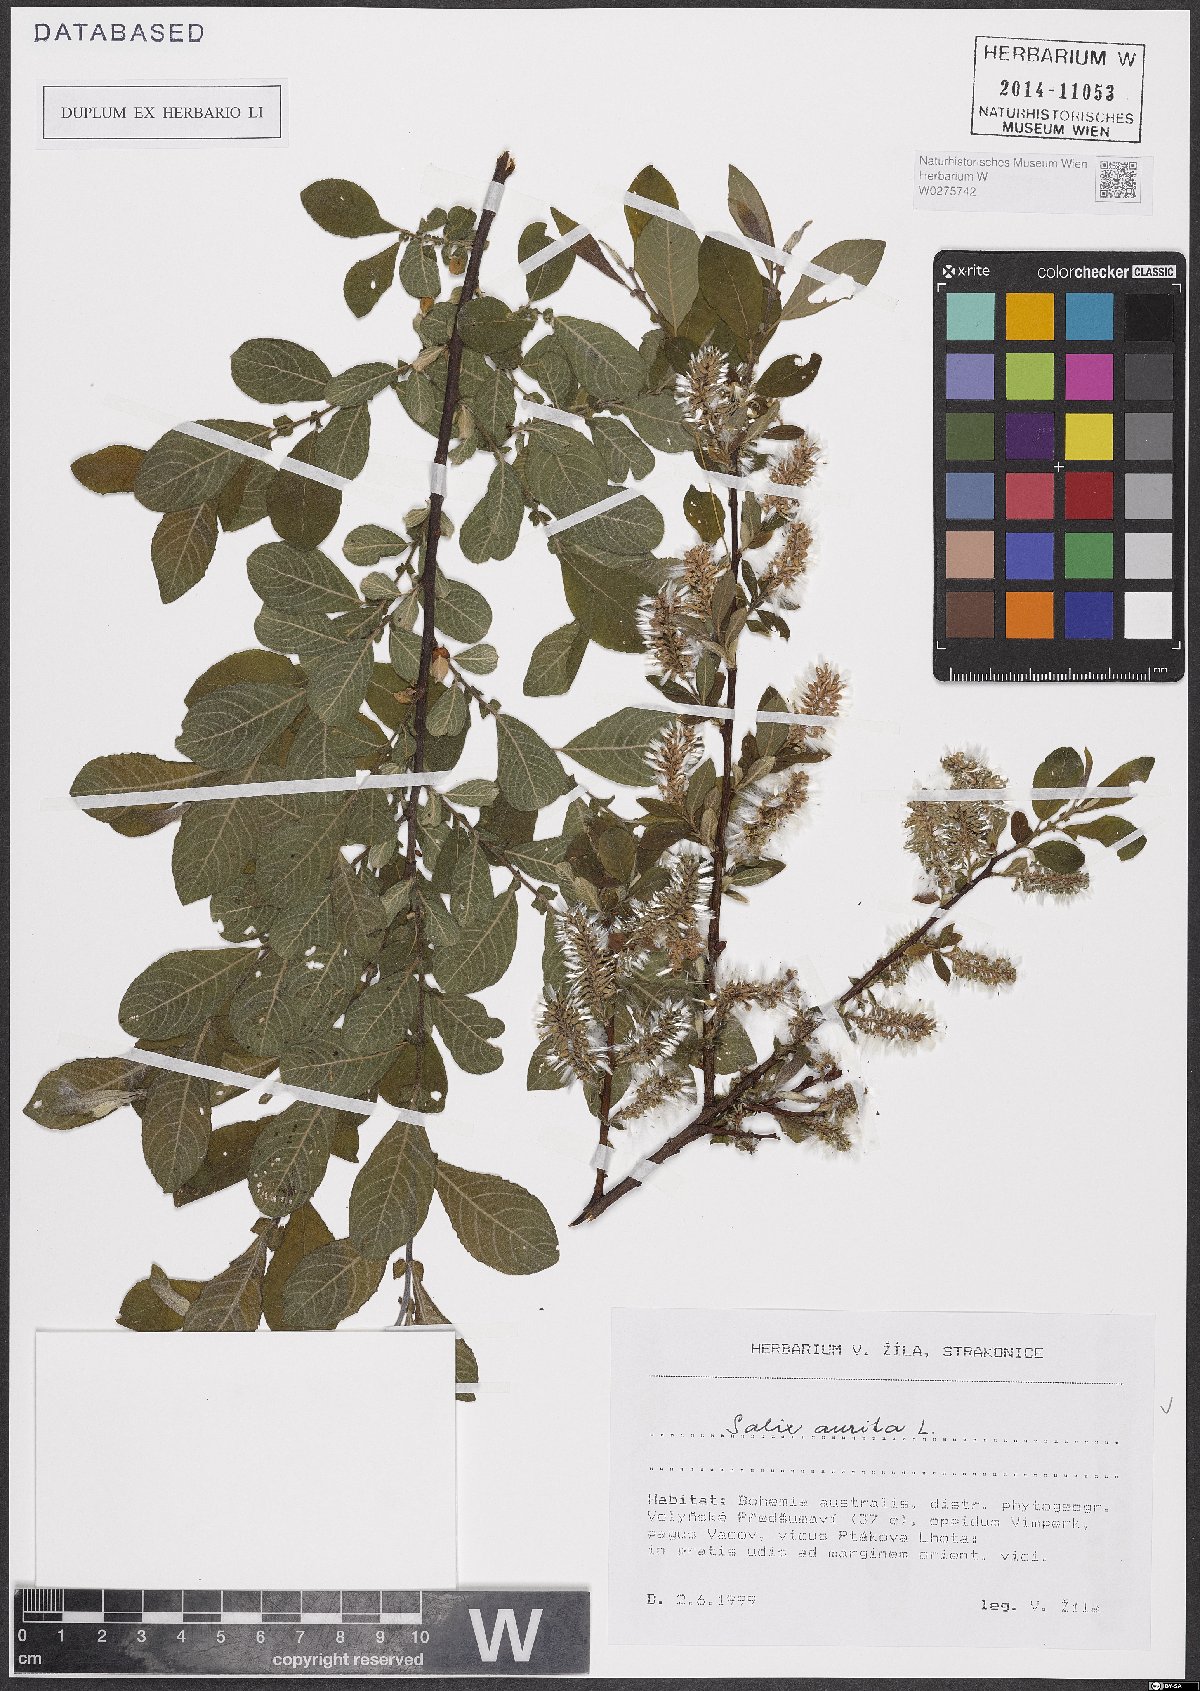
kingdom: Plantae
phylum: Tracheophyta
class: Magnoliopsida
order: Malpighiales
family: Salicaceae
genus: Salix
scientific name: Salix aurita
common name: Eared willow
